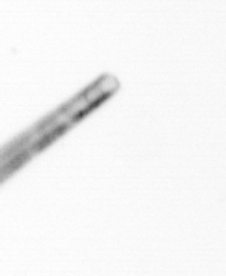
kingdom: Chromista
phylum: Ochrophyta
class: Bacillariophyceae
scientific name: Bacillariophyceae
